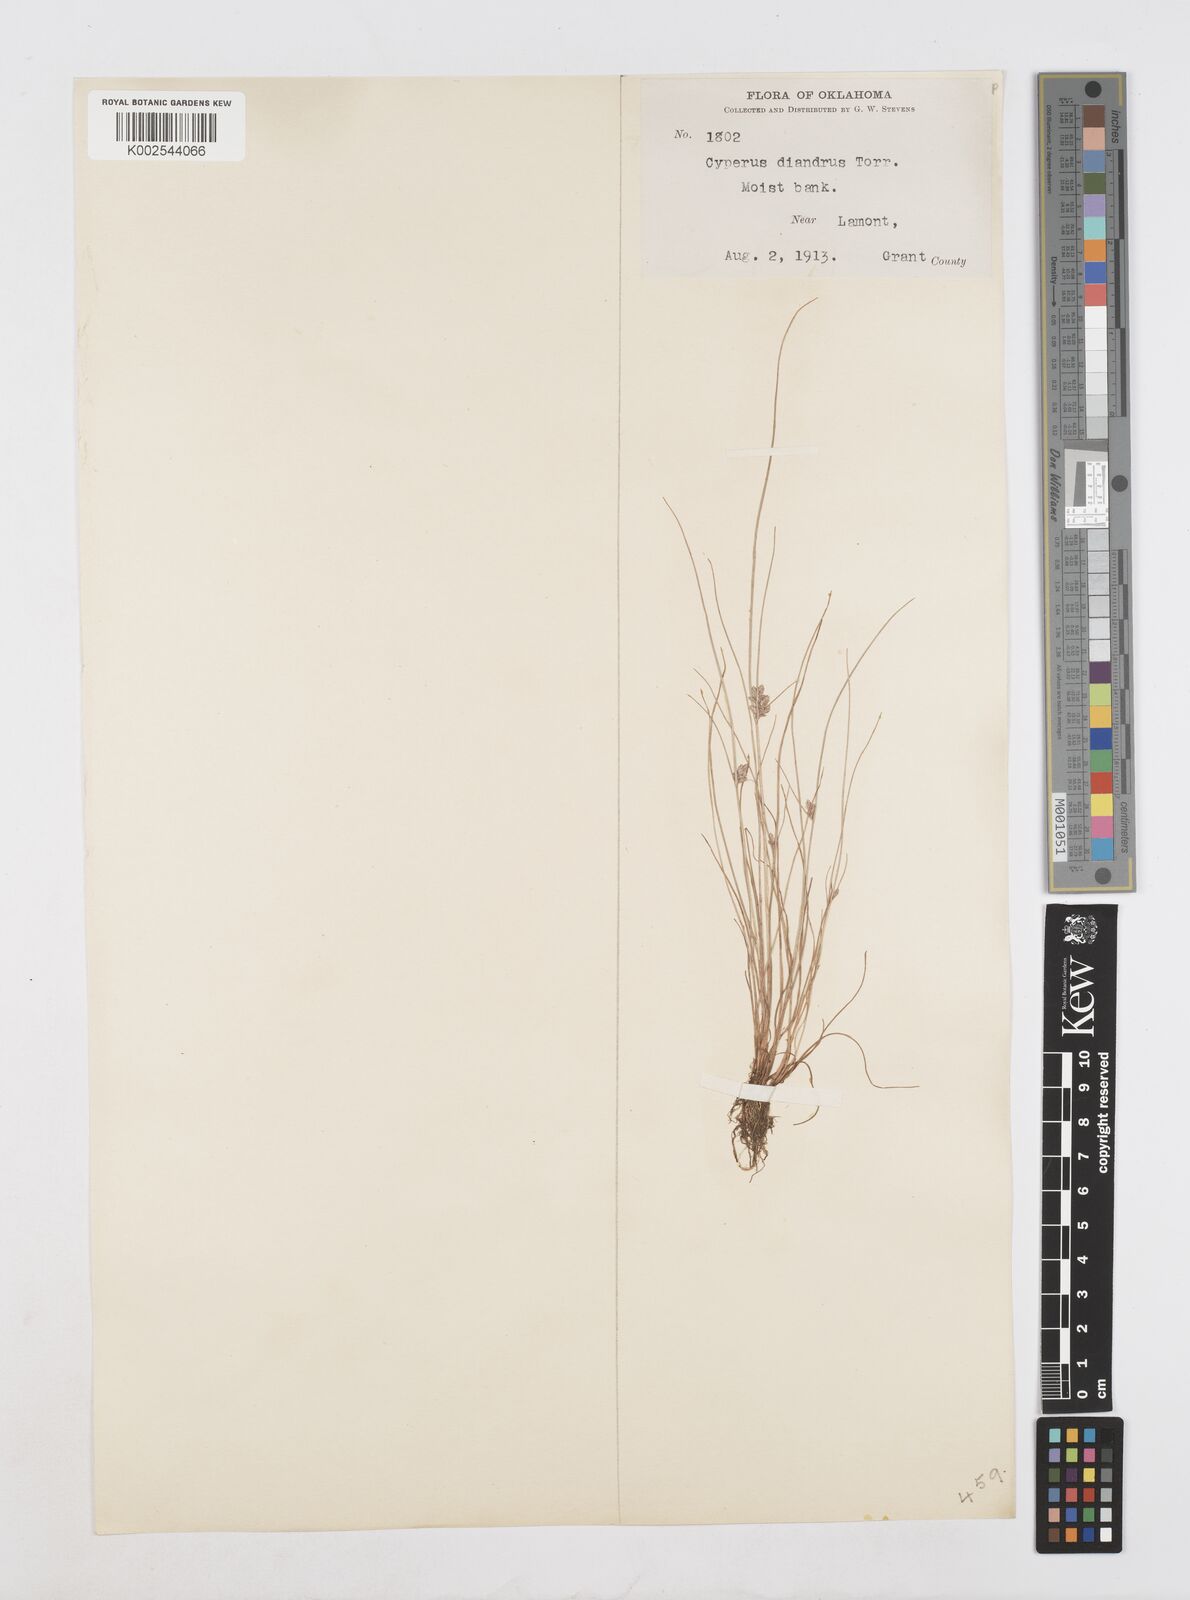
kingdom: Plantae
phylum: Tracheophyta
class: Liliopsida
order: Poales
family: Cyperaceae
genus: Cyperus
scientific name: Cyperus diandrus
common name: Low cyperus
